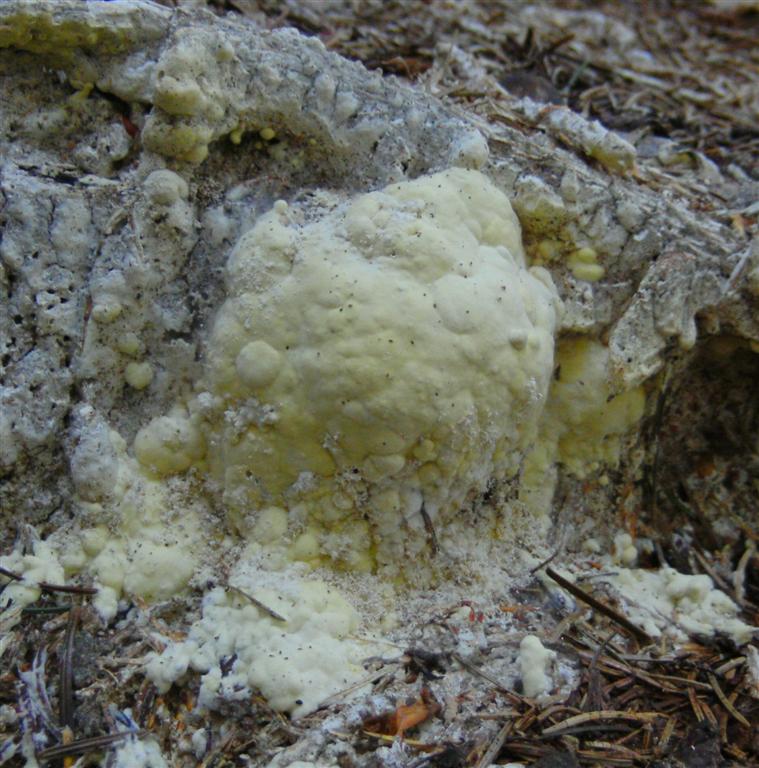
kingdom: Fungi
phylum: Basidiomycota
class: Agaricomycetes
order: Polyporales
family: Fomitopsidaceae
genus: Daedalea
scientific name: Daedalea xantha
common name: gul sejporesvamp
